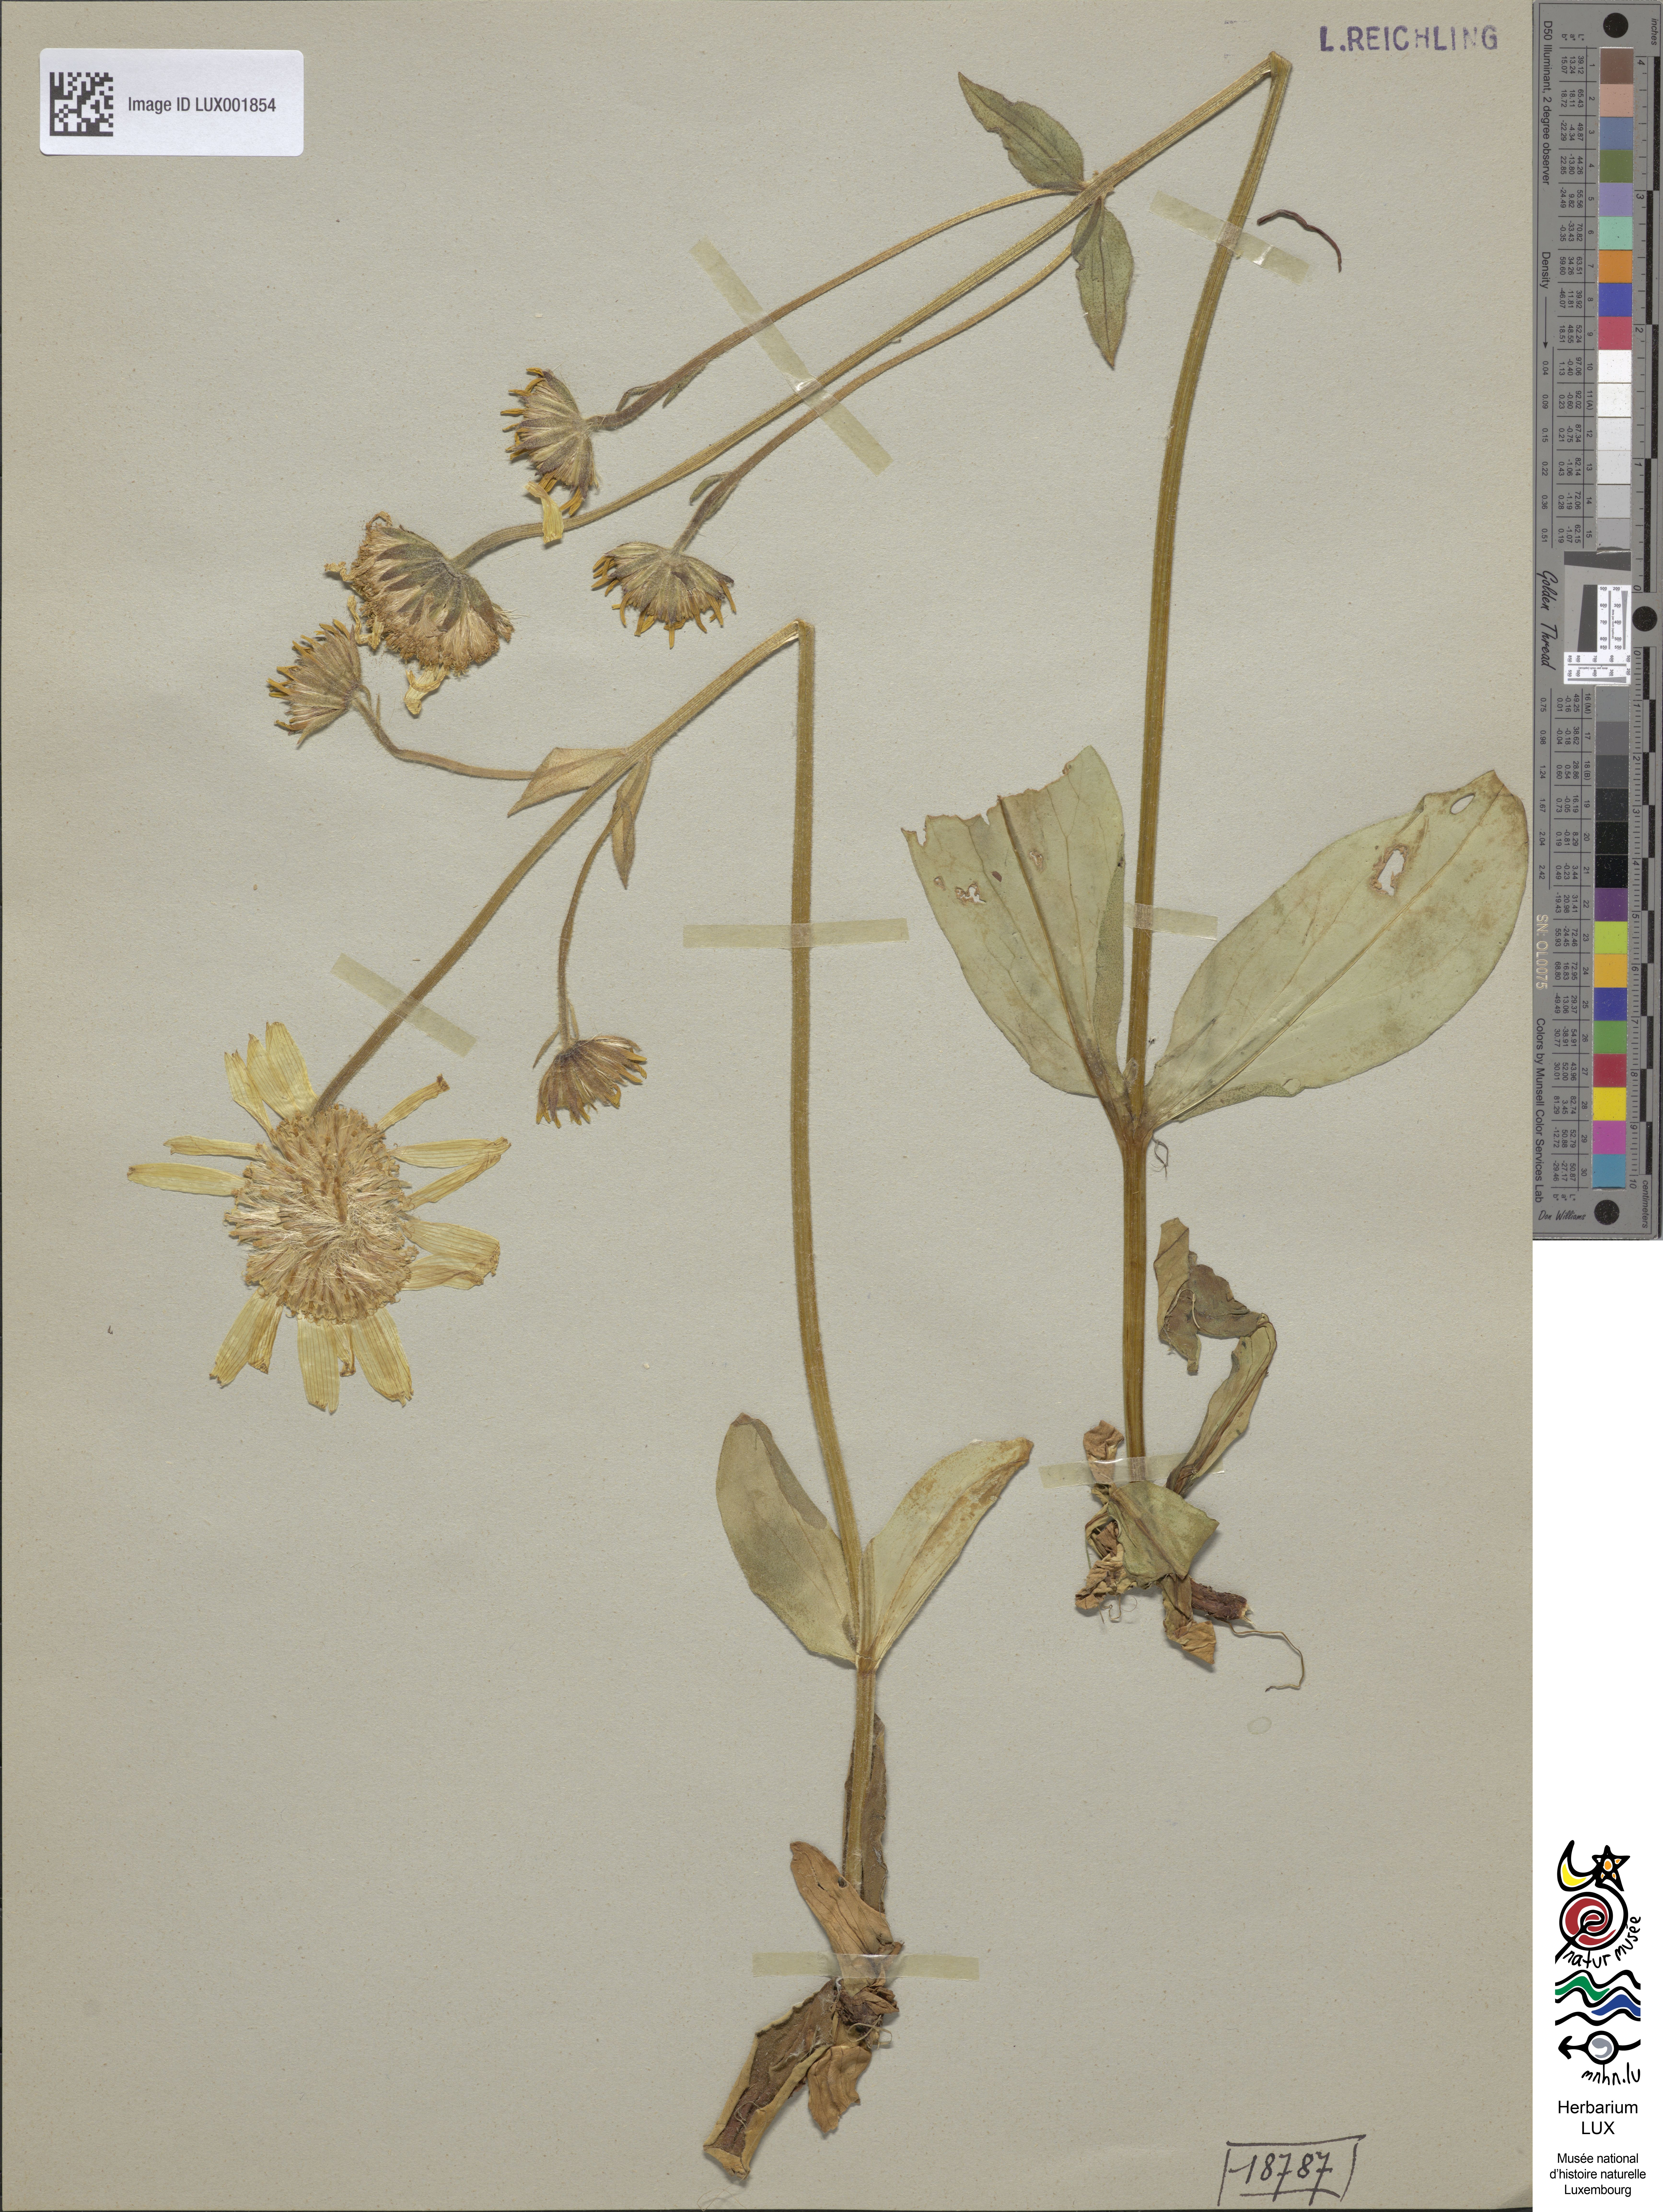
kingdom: Plantae
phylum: Tracheophyta
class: Magnoliopsida
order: Asterales
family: Asteraceae
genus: Arnica
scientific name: Arnica montana
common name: Leopard's bane
